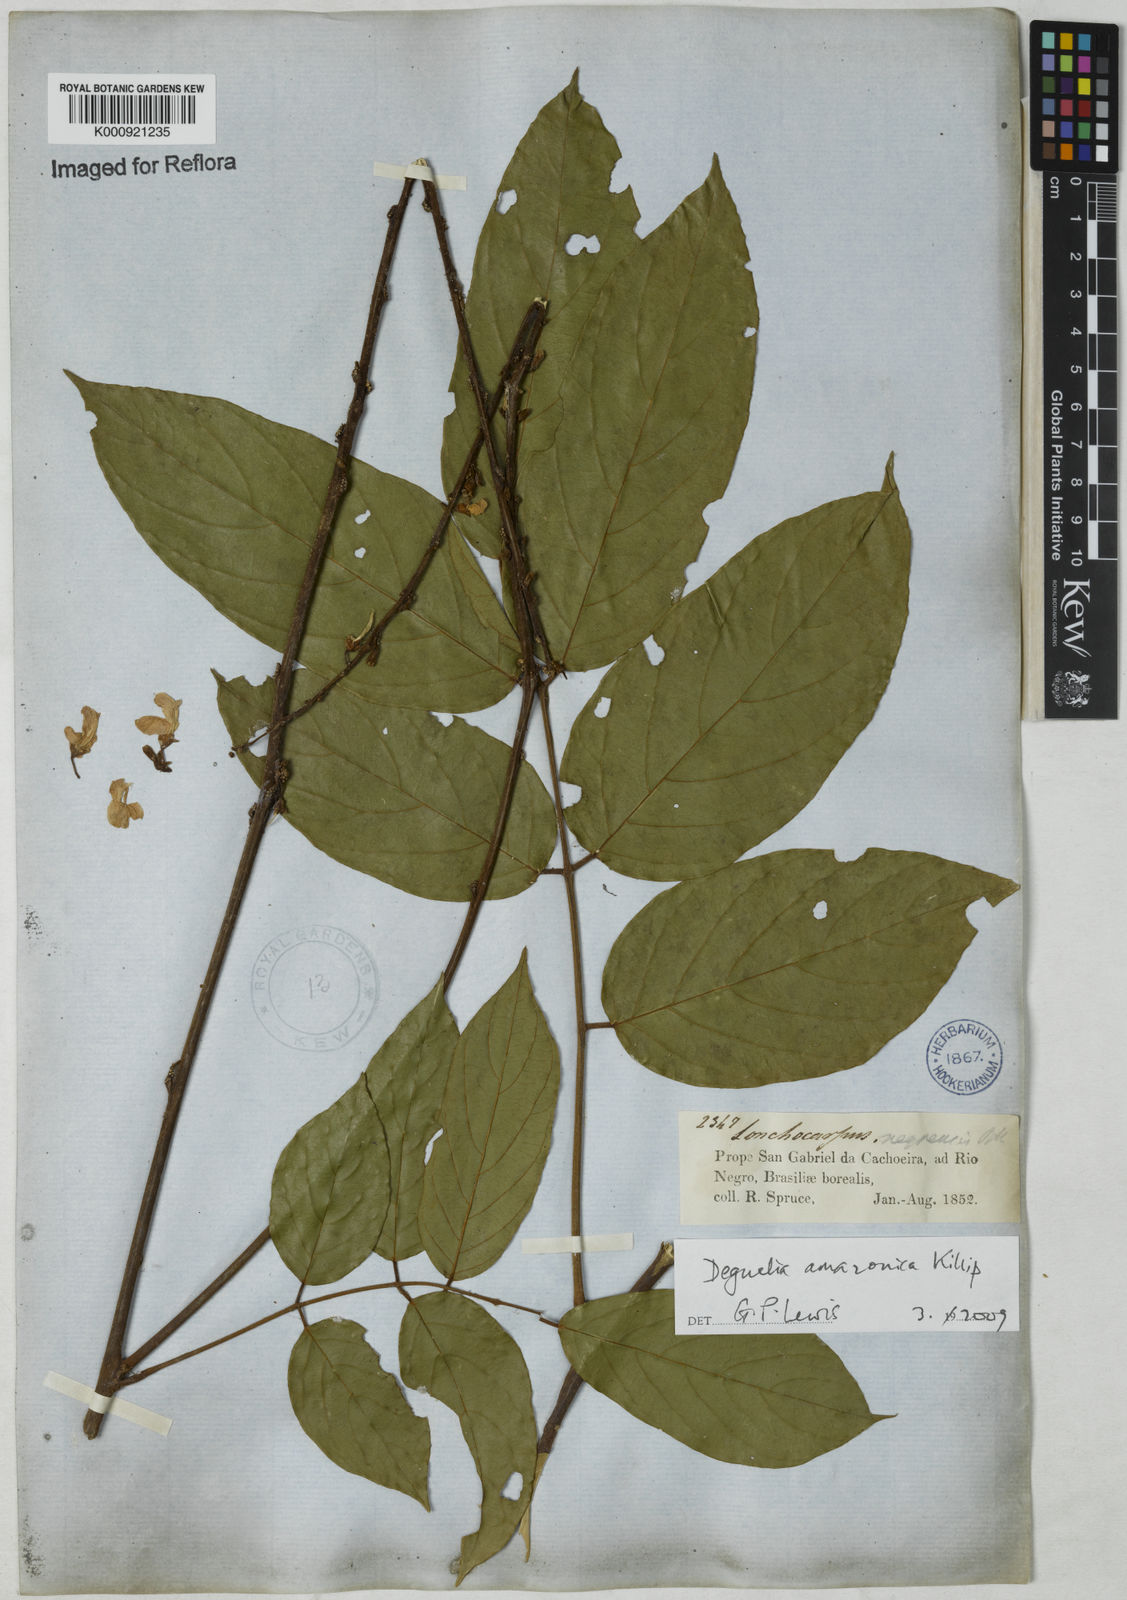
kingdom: Plantae
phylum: Tracheophyta
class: Magnoliopsida
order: Fabales
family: Fabaceae
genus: Deguelia
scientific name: Deguelia amazonica
